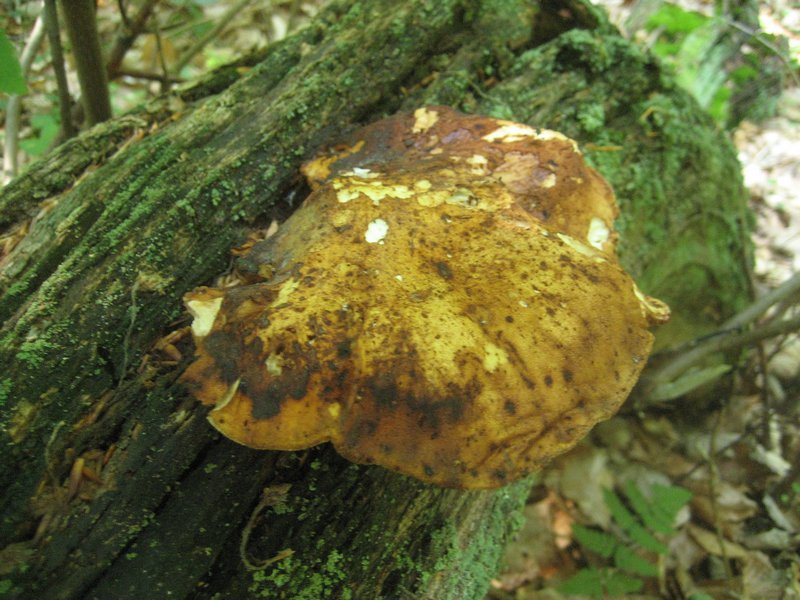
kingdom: Fungi
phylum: Basidiomycota
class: Agaricomycetes
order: Polyporales
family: Fomitopsidaceae
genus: Buglossoporus
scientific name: Buglossoporus quercinus
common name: egetunge
